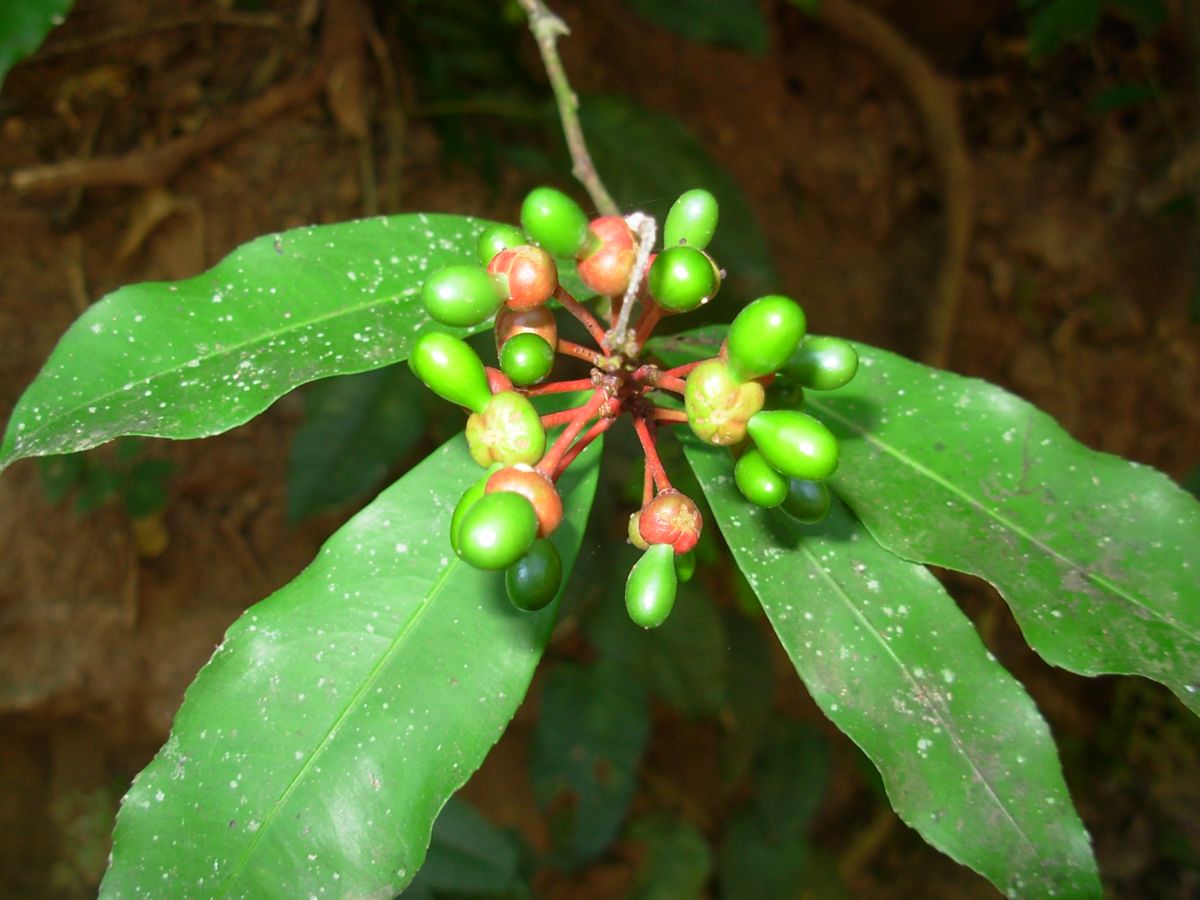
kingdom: Plantae
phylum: Tracheophyta
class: Magnoliopsida
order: Malpighiales
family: Ochnaceae
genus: Ouratea
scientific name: Ouratea lucens
